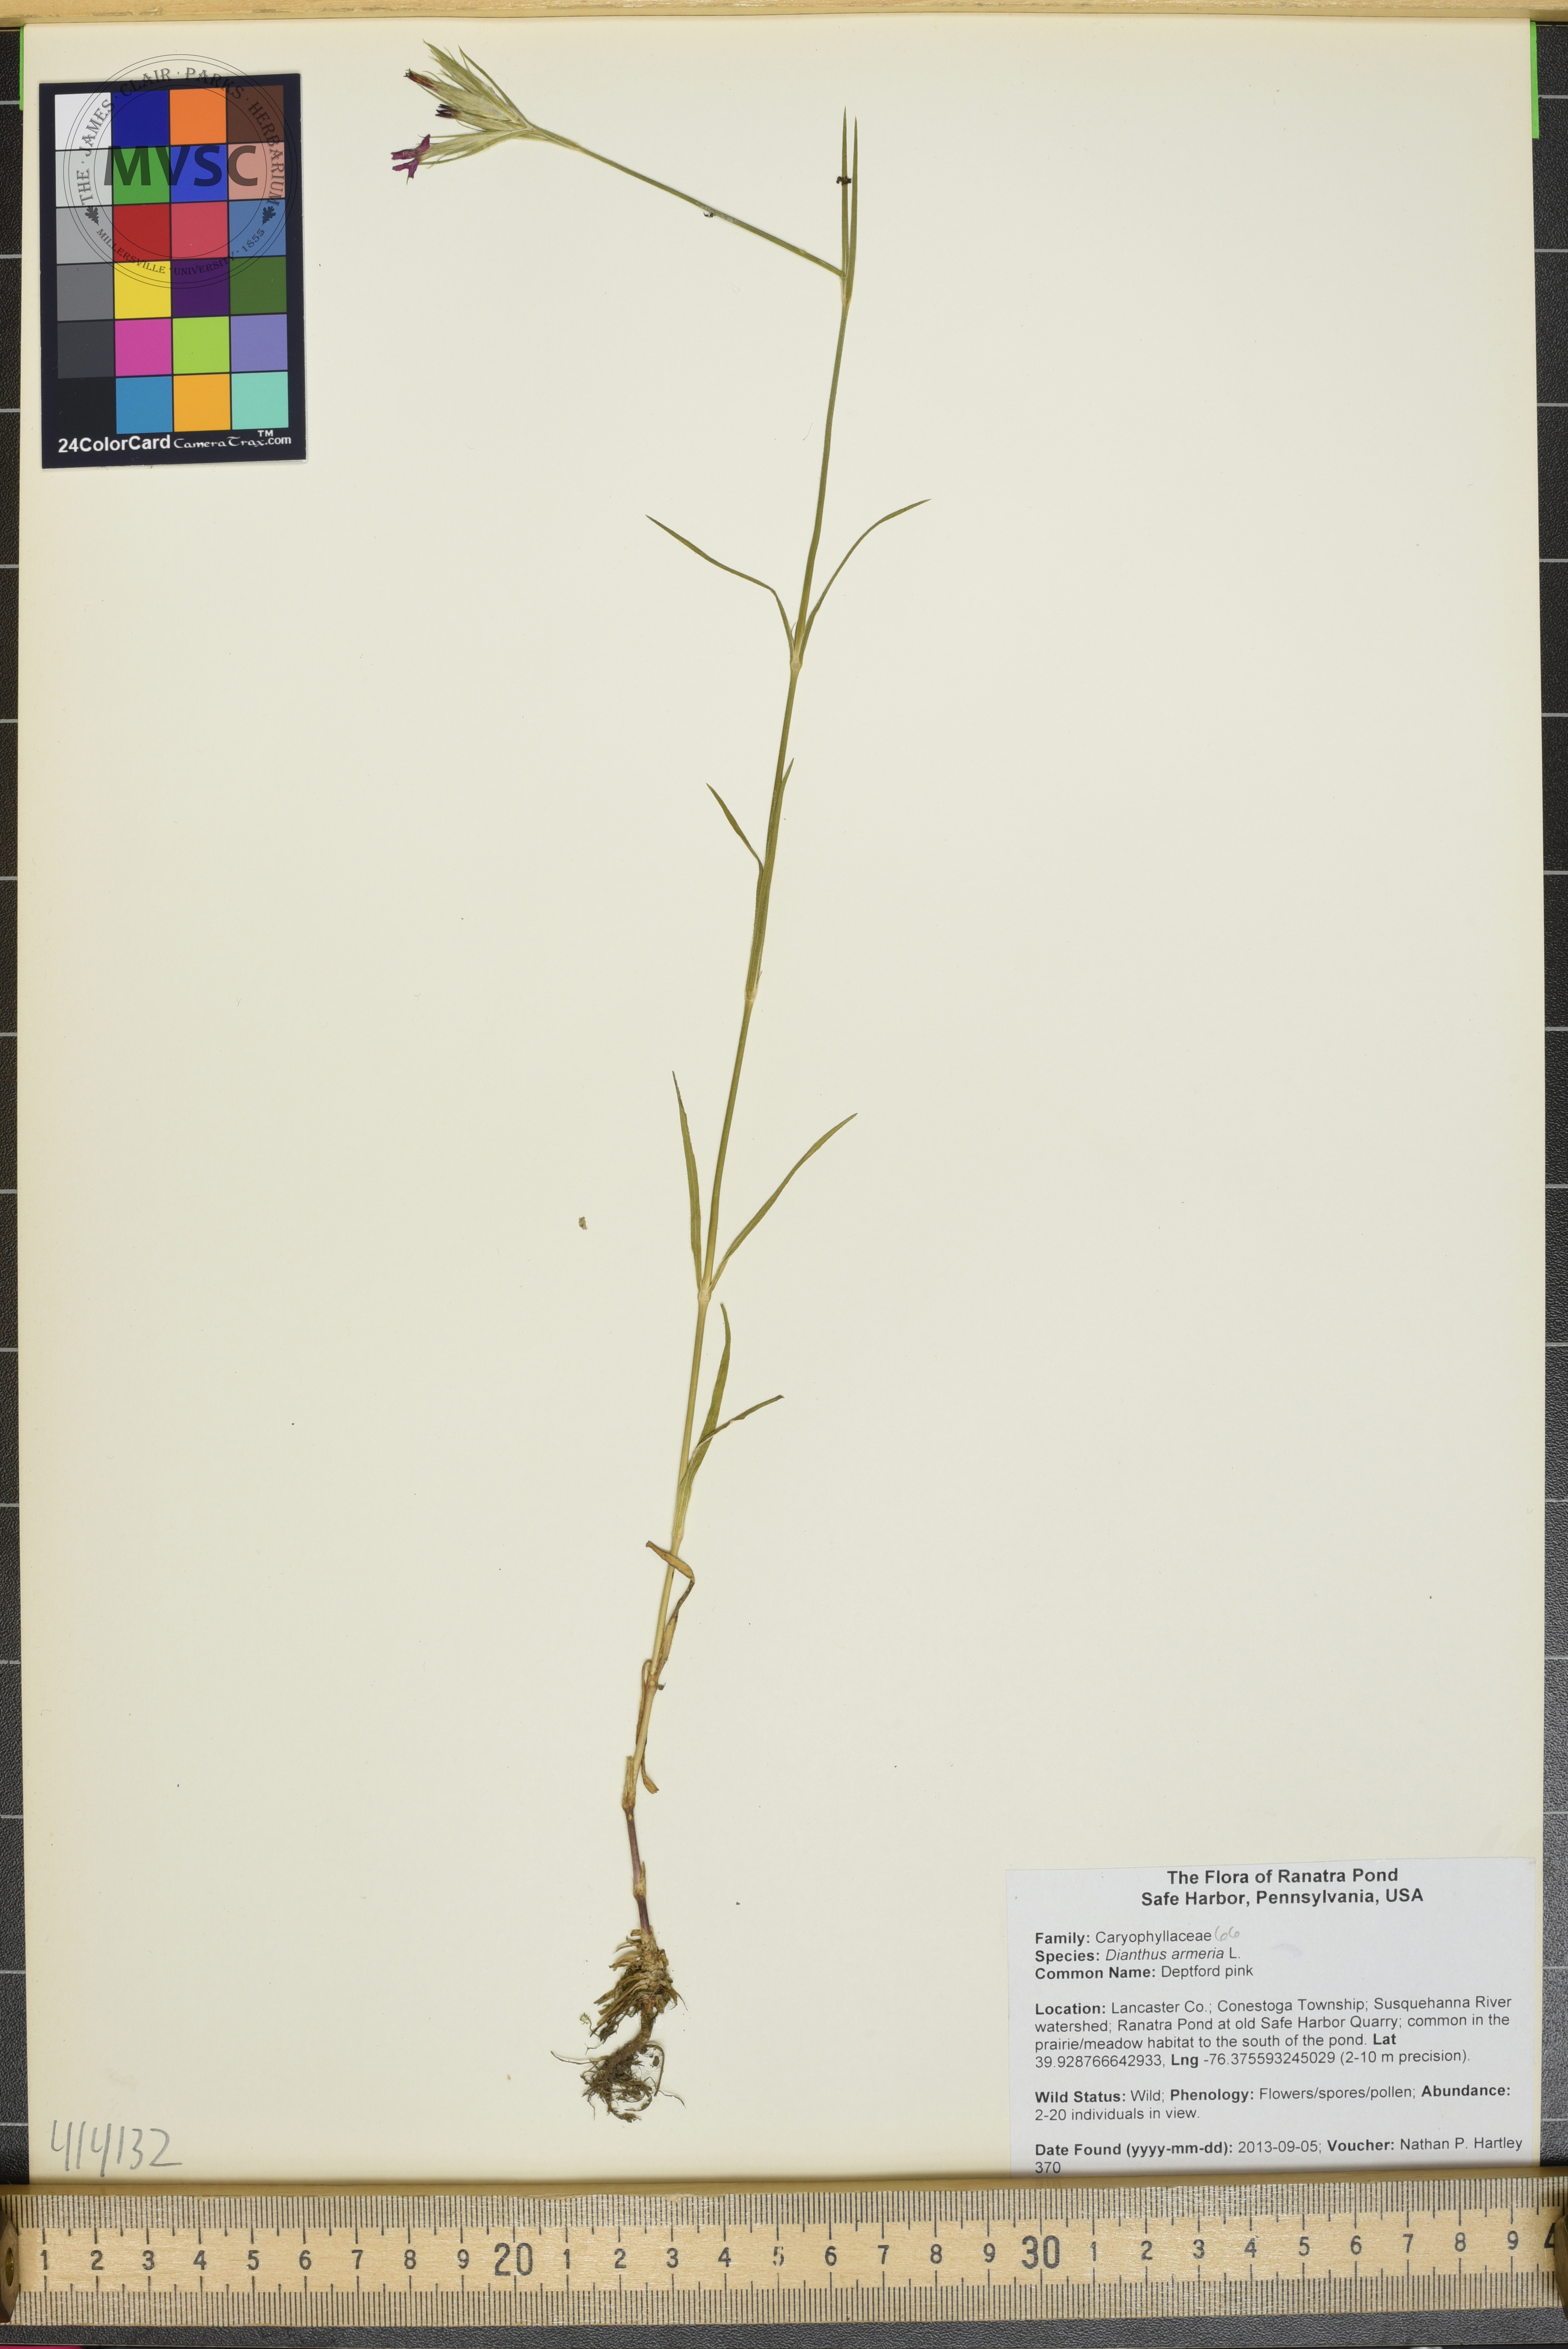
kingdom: Plantae
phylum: Tracheophyta
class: Magnoliopsida
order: Caryophyllales
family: Caryophyllaceae
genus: Dianthus
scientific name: Dianthus armeria
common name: Deptford pink
